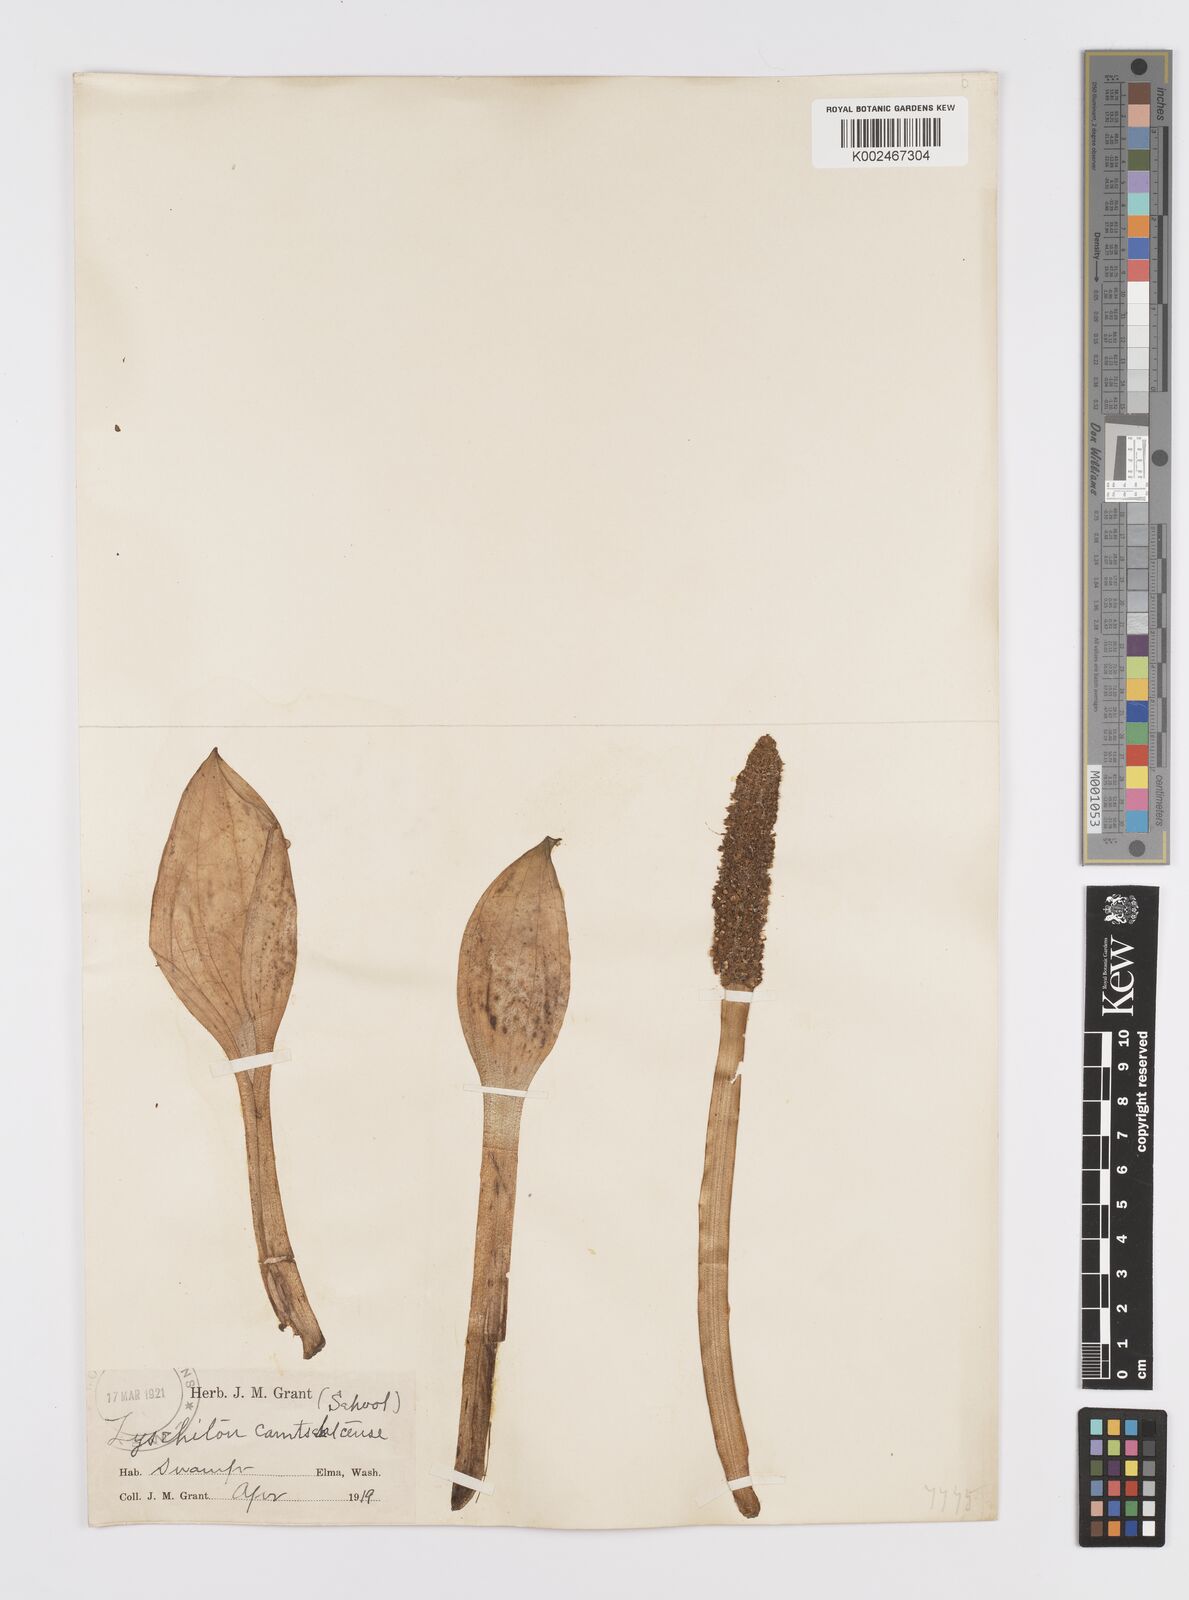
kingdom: Plantae
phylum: Tracheophyta
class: Liliopsida
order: Alismatales
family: Araceae
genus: Lysichiton
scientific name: Lysichiton americanus
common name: American skunk cabbage
